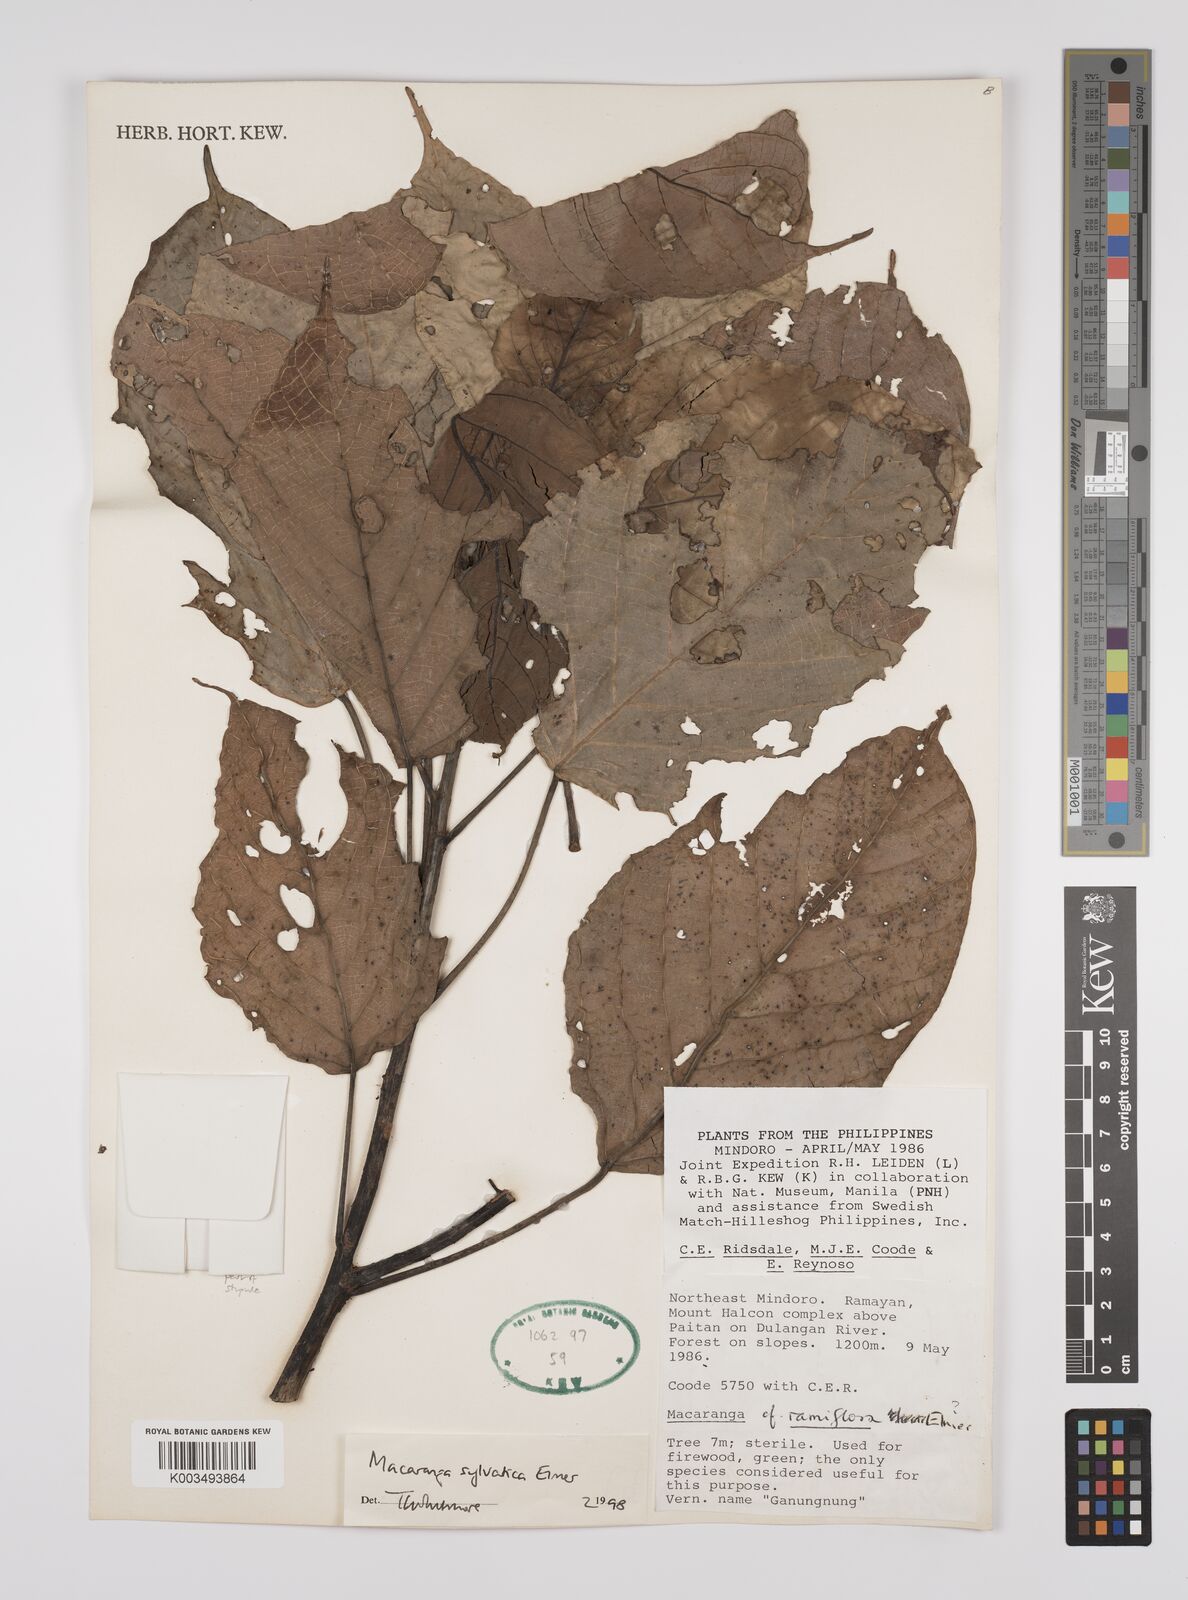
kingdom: Plantae
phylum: Tracheophyta
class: Magnoliopsida
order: Malpighiales
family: Euphorbiaceae
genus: Macaranga
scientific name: Macaranga sylvatica
